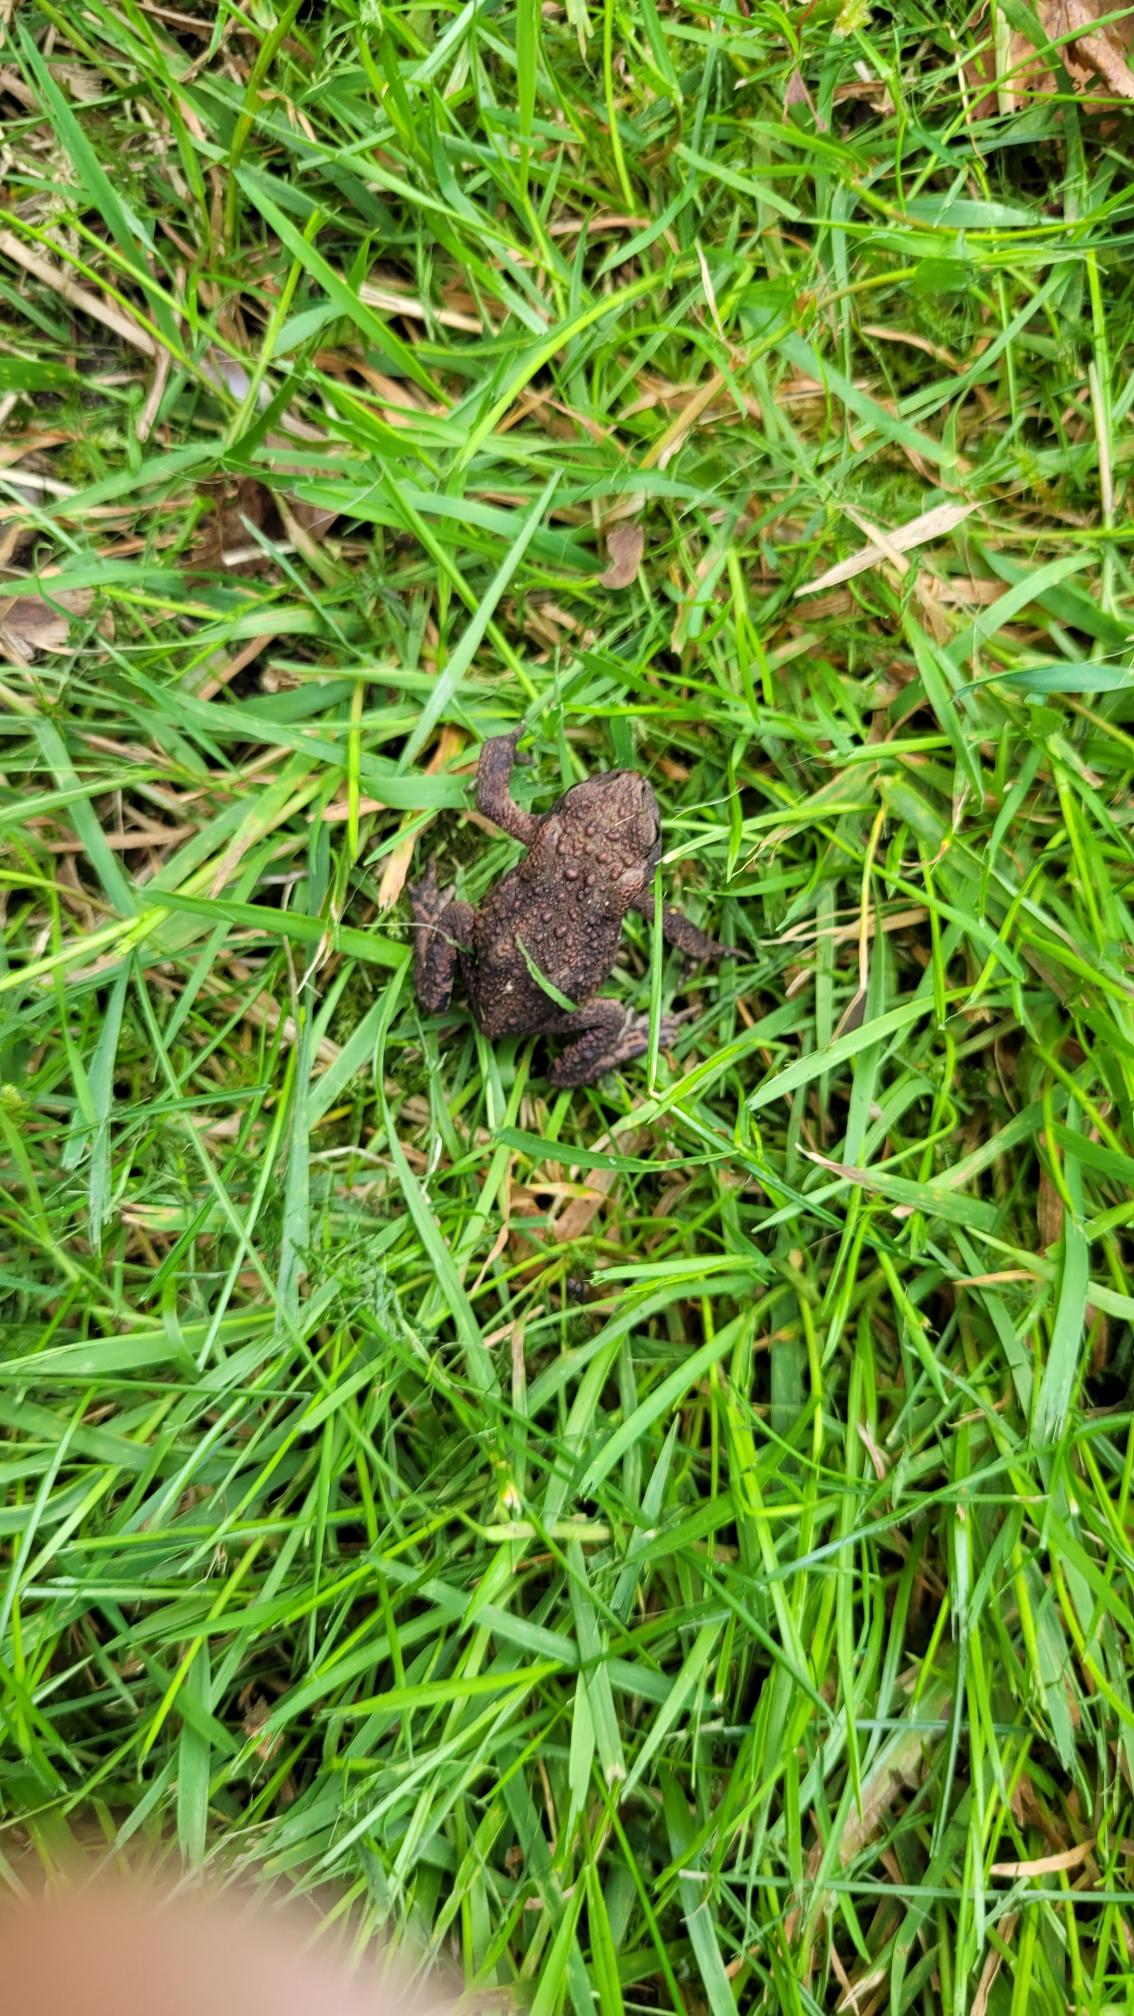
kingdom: Animalia
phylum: Chordata
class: Amphibia
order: Anura
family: Bufonidae
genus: Bufo
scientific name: Bufo bufo
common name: Skrubtudse
